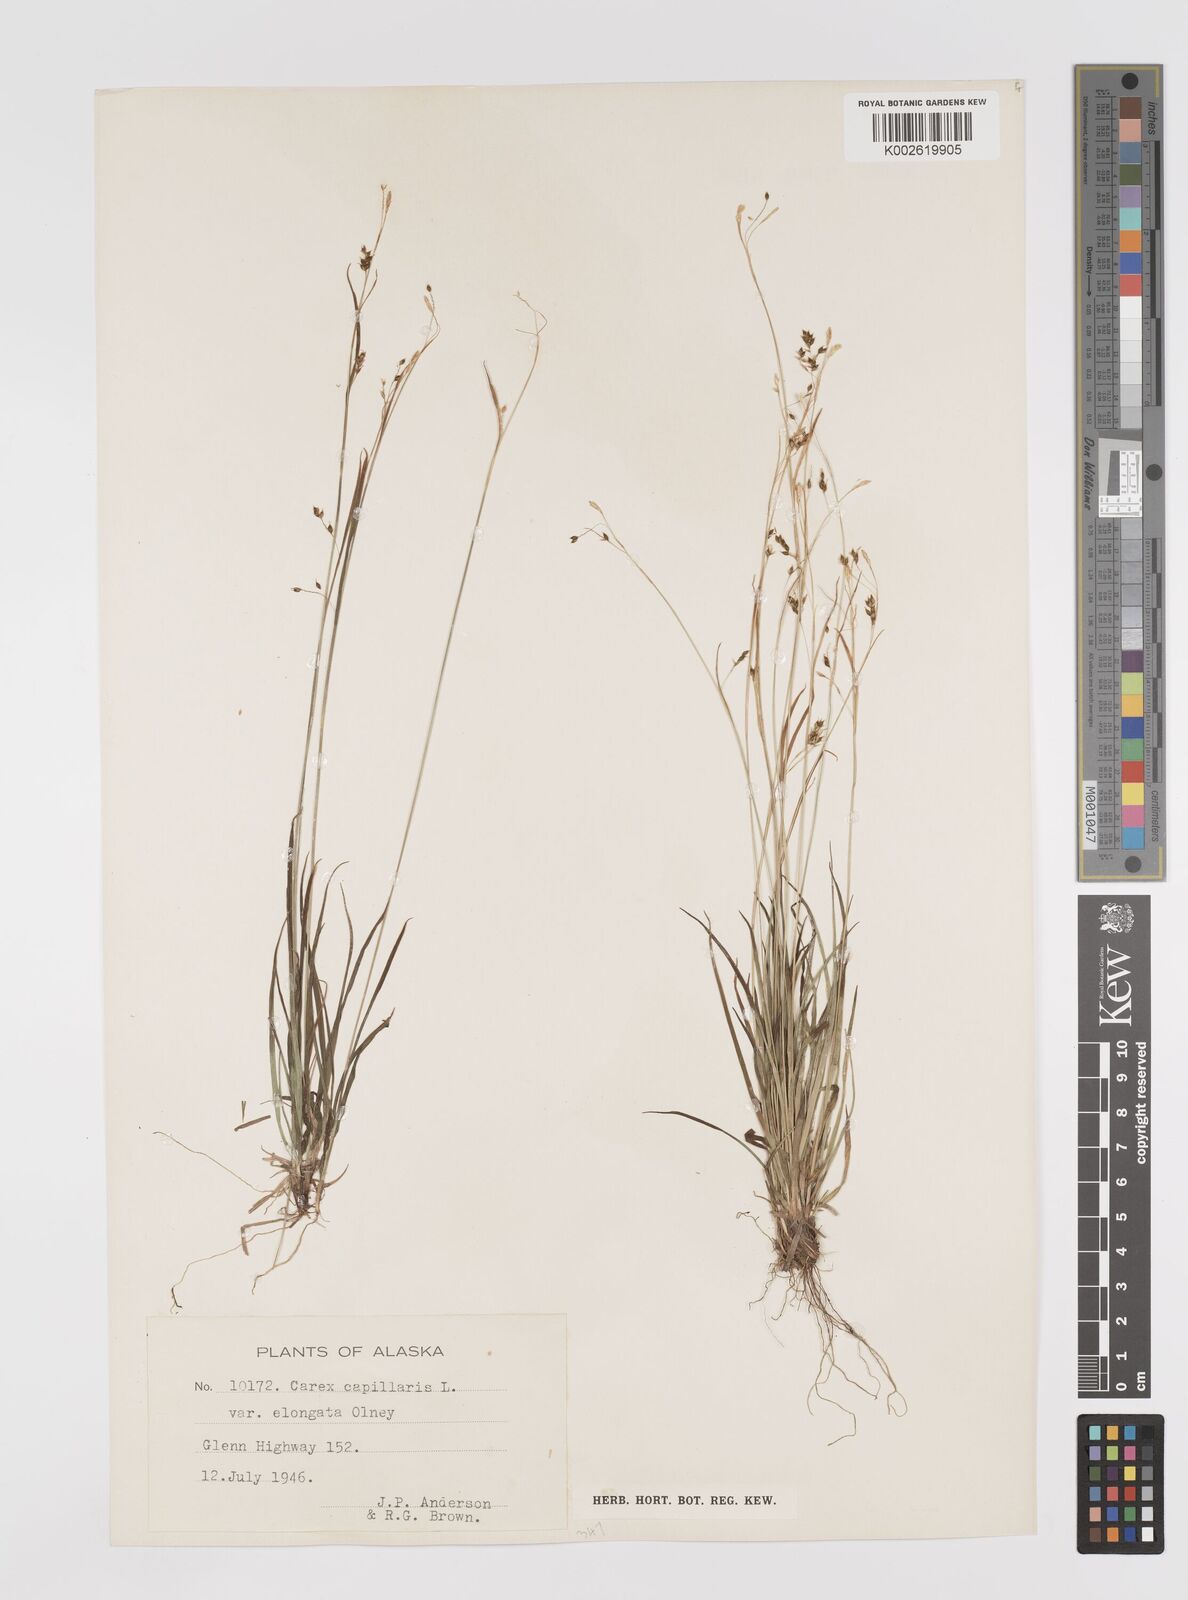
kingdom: Plantae
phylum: Tracheophyta
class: Liliopsida
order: Poales
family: Cyperaceae
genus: Carex
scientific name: Carex capillaris
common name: Hair sedge
